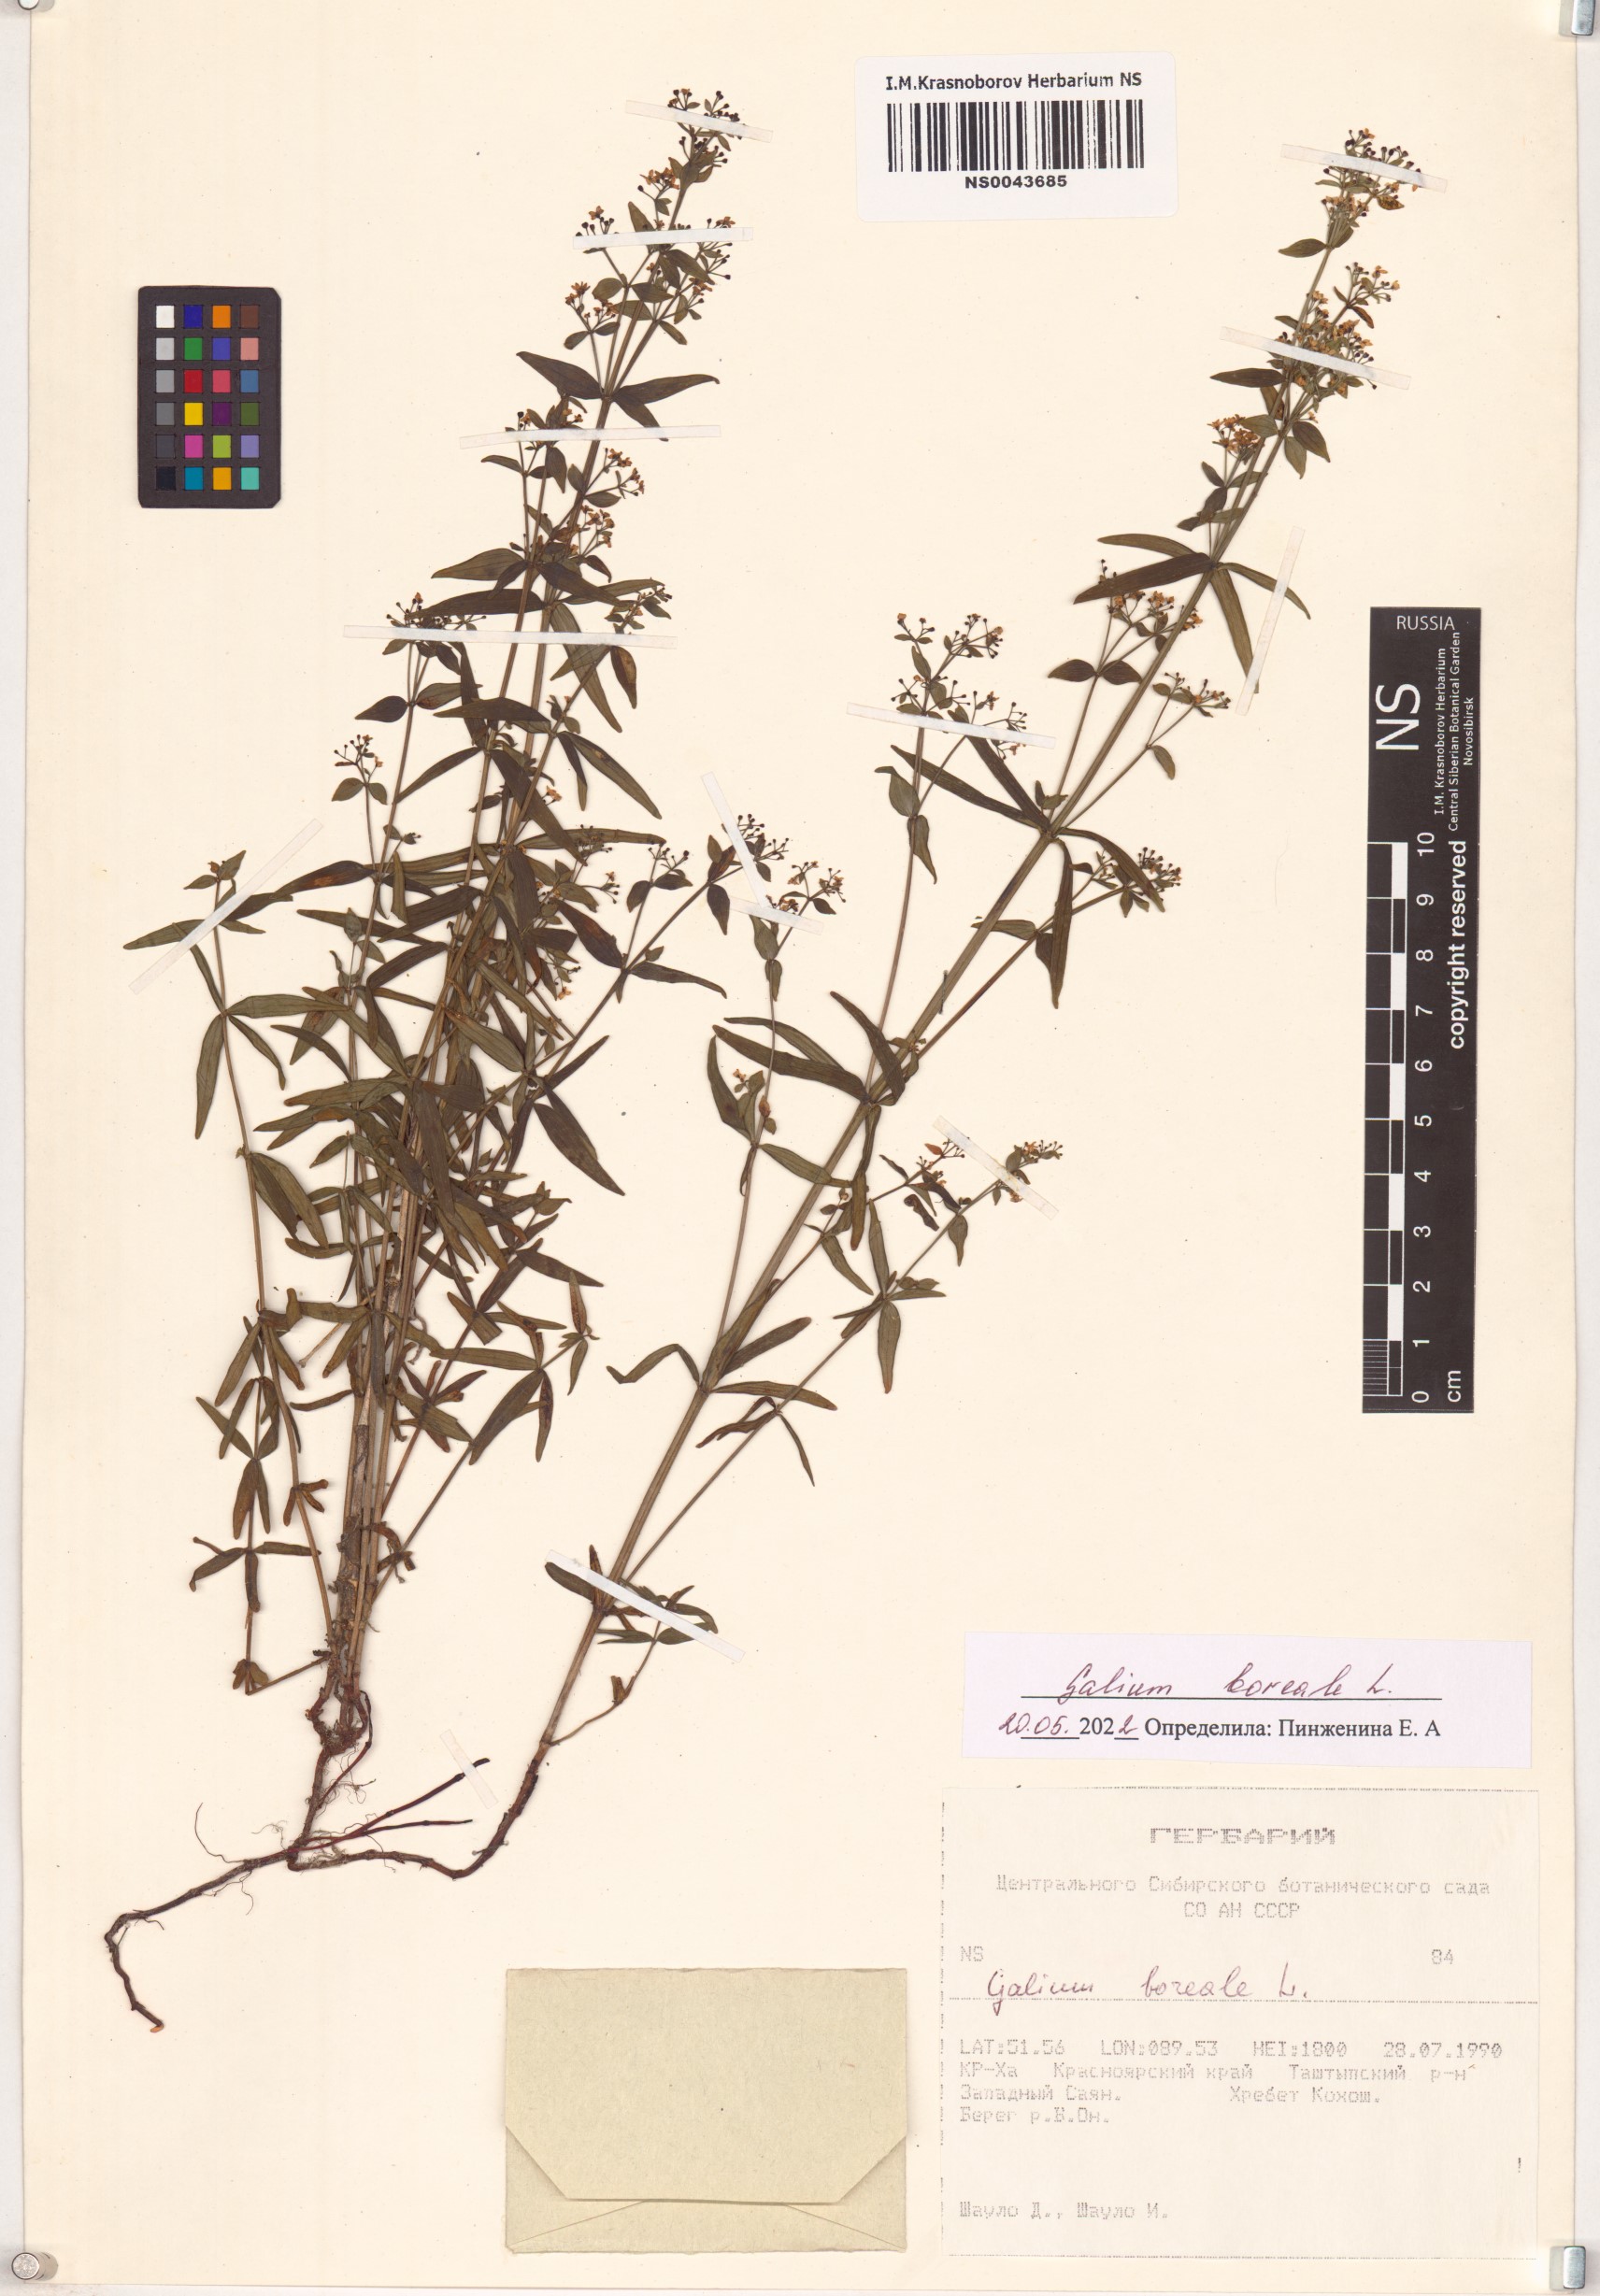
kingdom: Plantae
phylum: Tracheophyta
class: Magnoliopsida
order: Gentianales
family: Rubiaceae
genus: Galium
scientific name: Galium boreale
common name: Northern bedstraw
